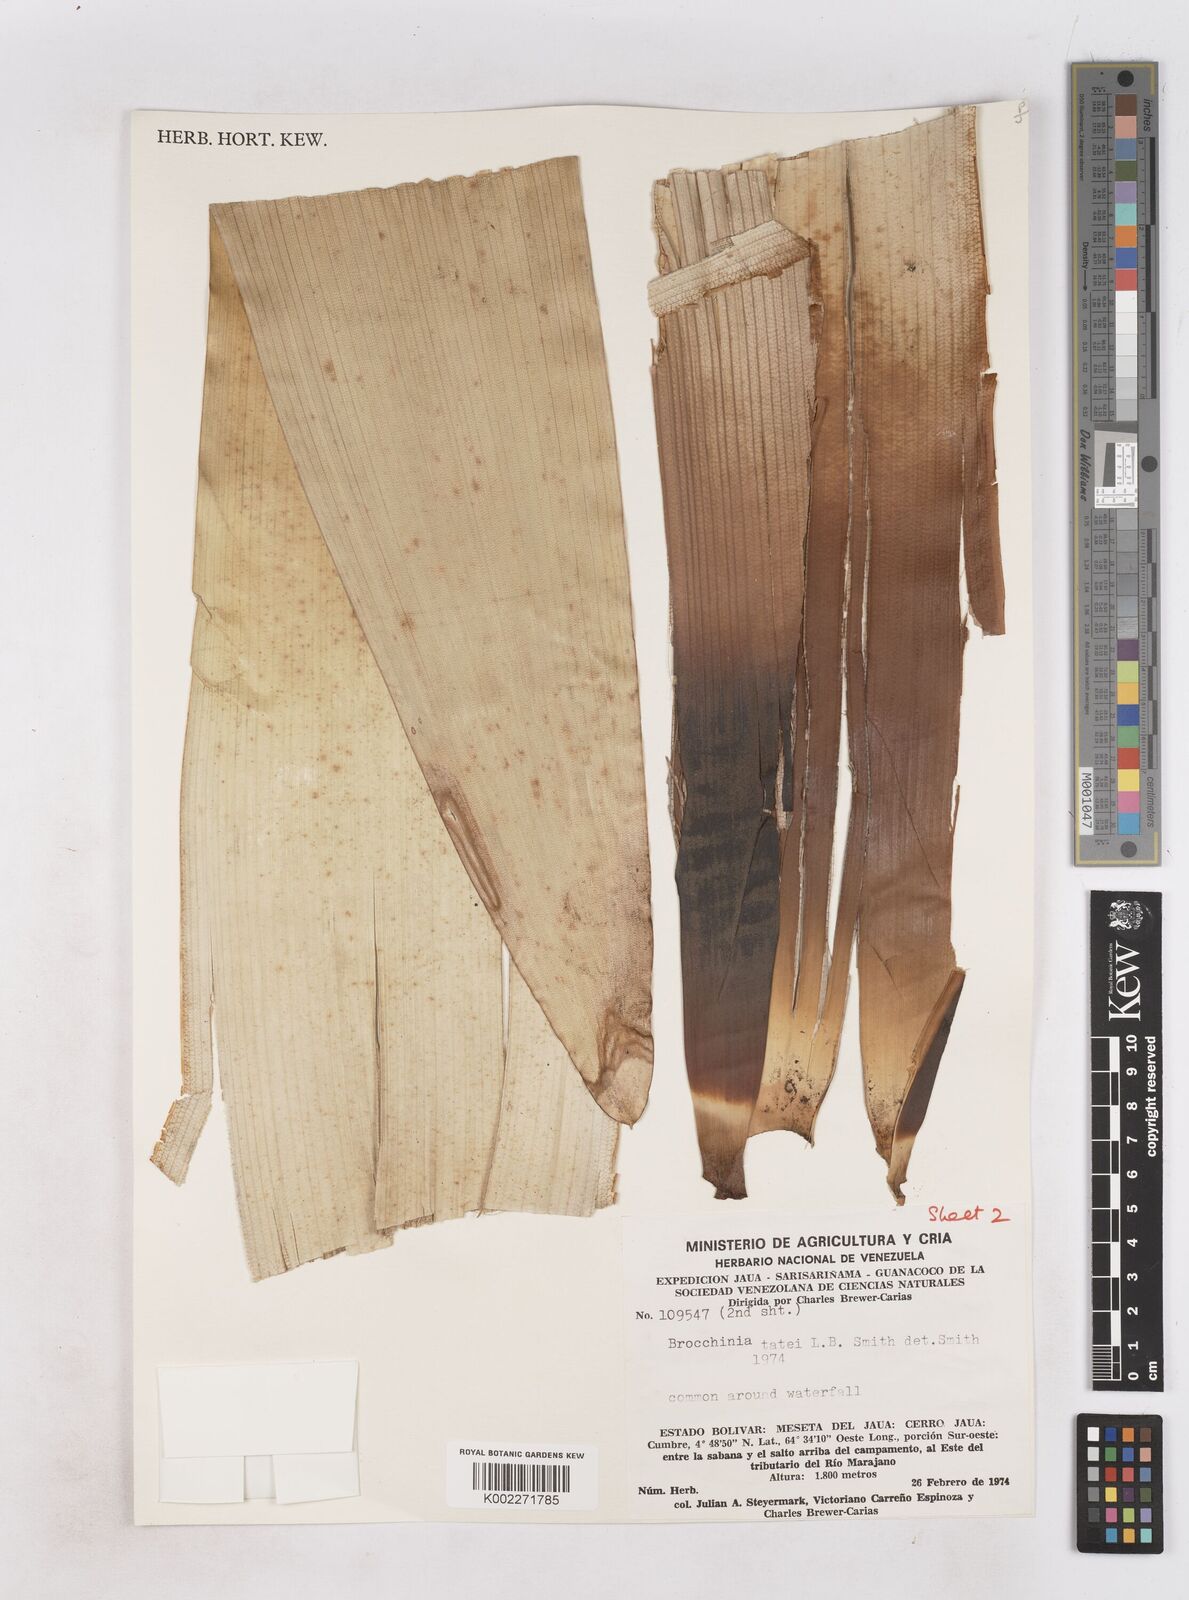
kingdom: Plantae
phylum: Tracheophyta
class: Liliopsida
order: Poales
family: Bromeliaceae
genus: Brocchinia
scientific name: Brocchinia tatei
